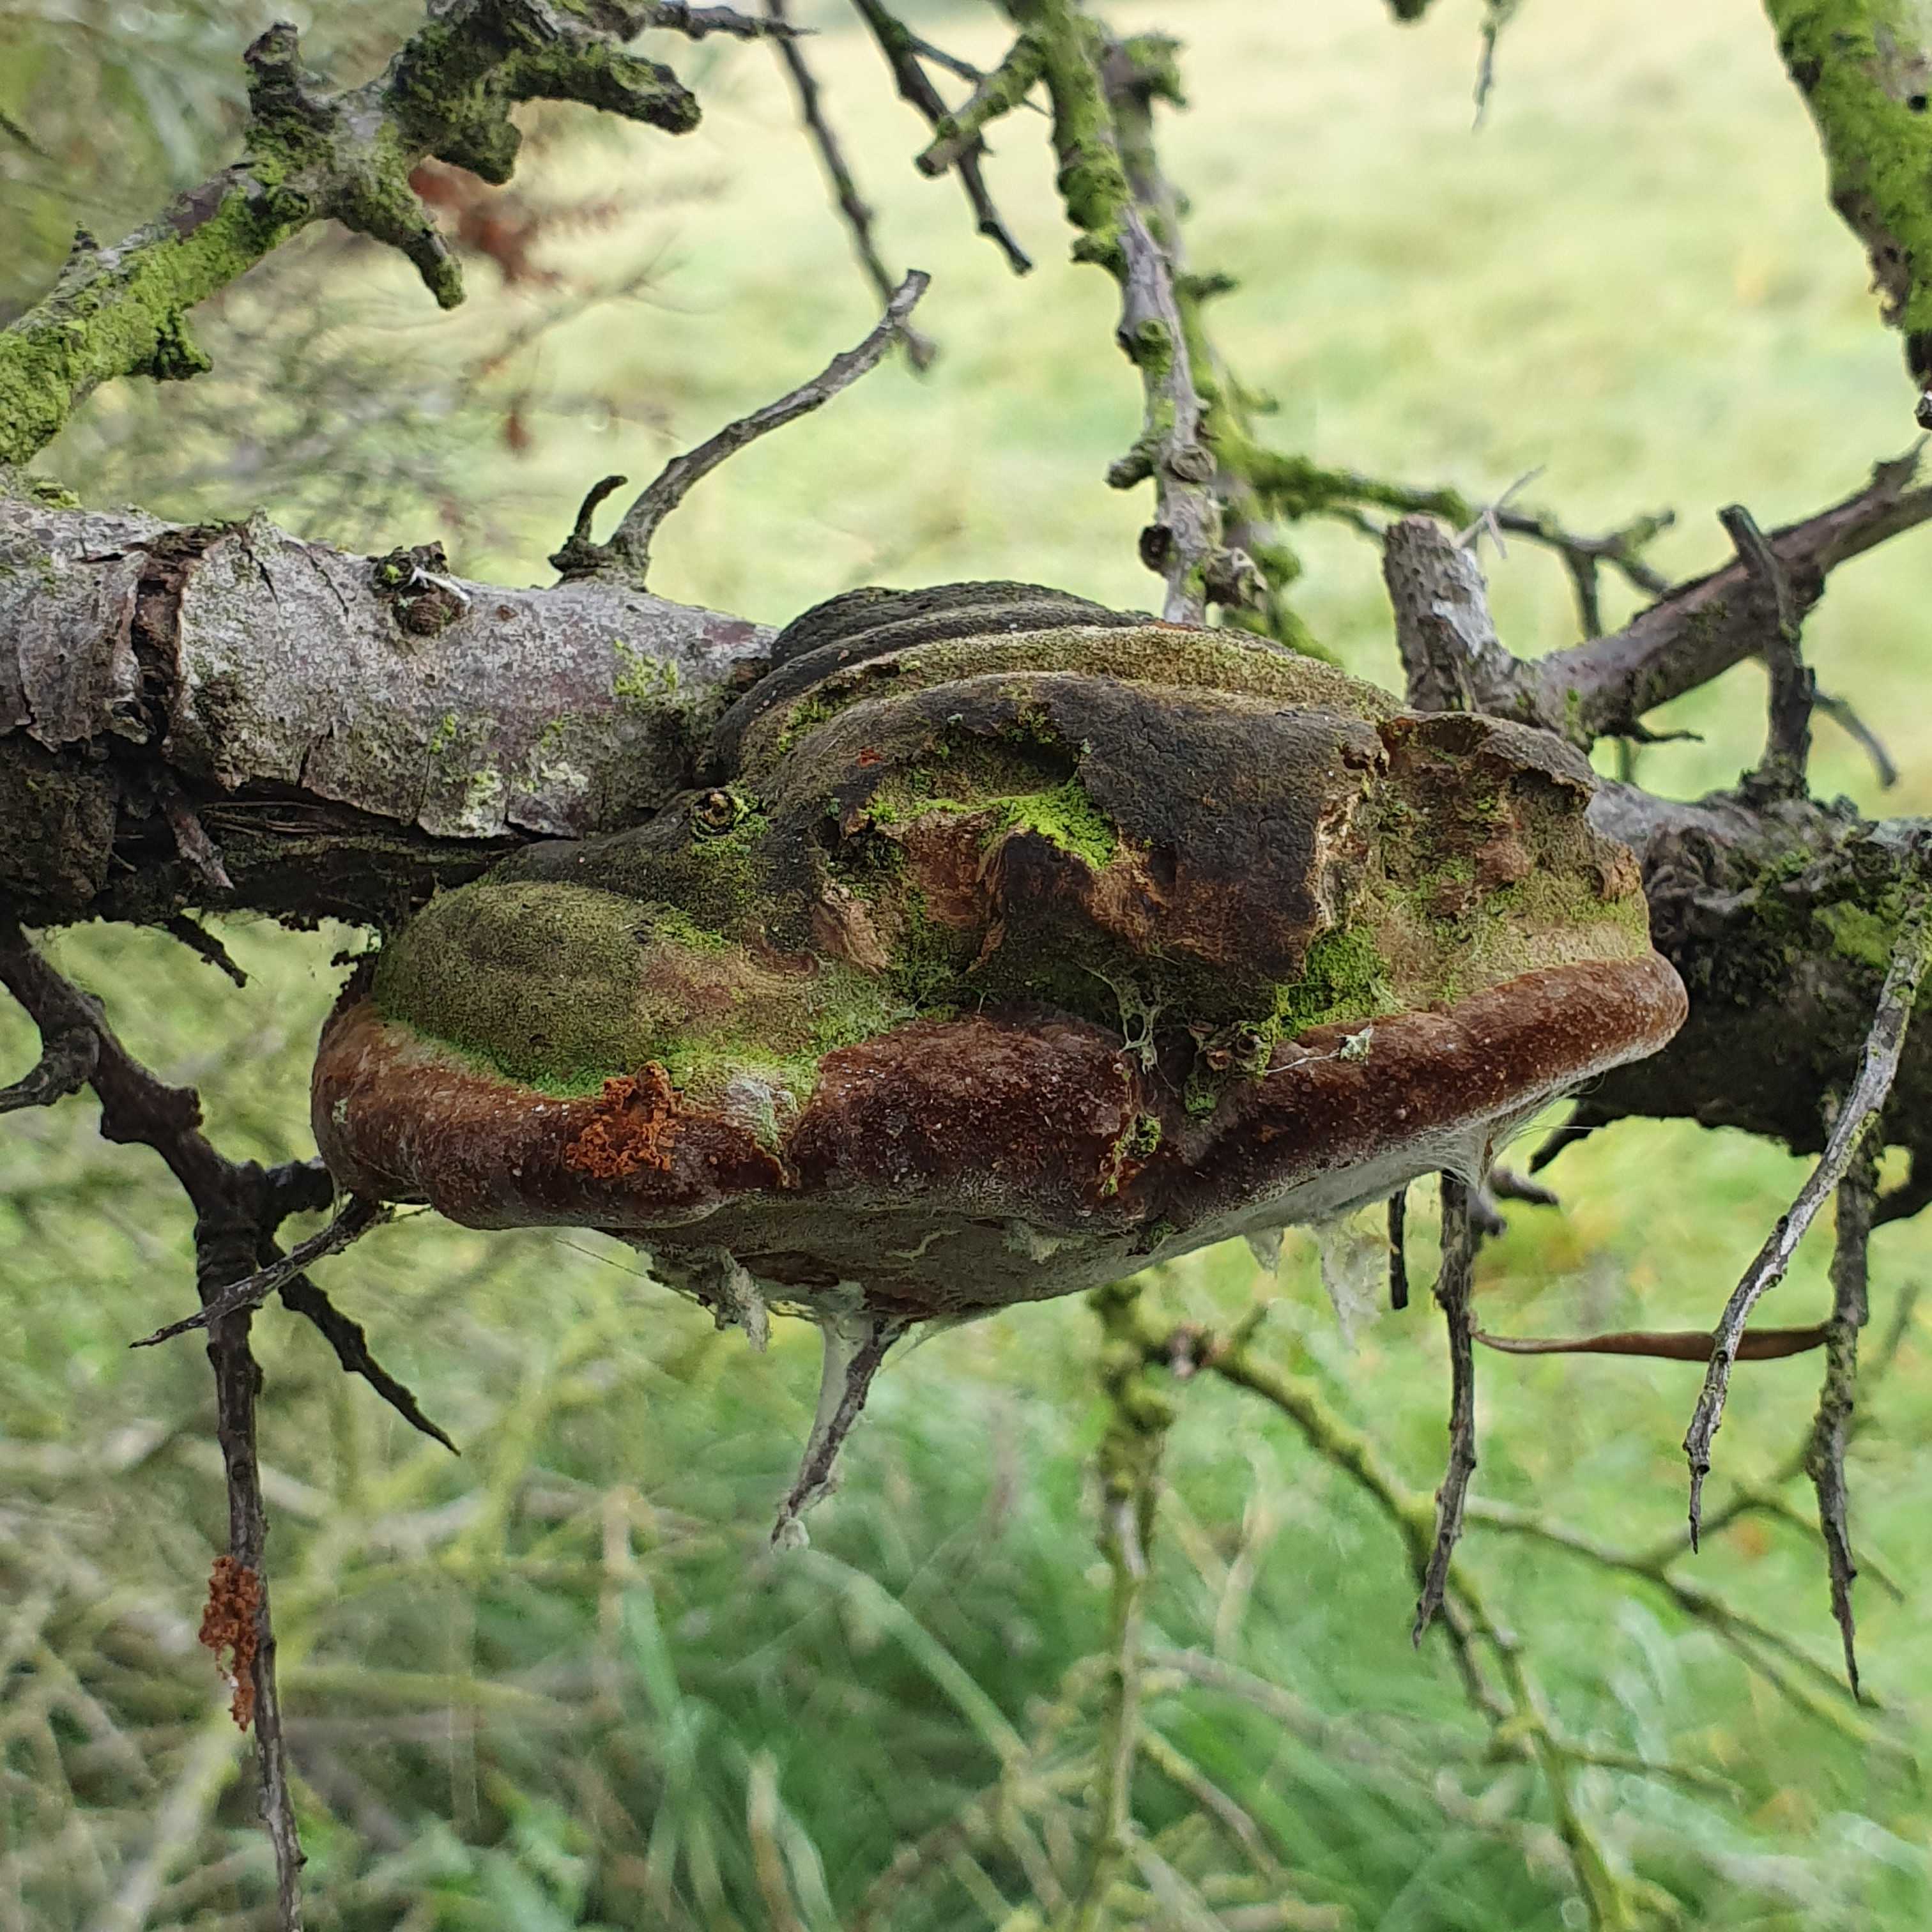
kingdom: Fungi
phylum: Basidiomycota
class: Agaricomycetes
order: Hymenochaetales
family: Hymenochaetaceae
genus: Fomitiporia
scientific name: Fomitiporia hippophaeicola
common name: havtorn-ildporesvamp
